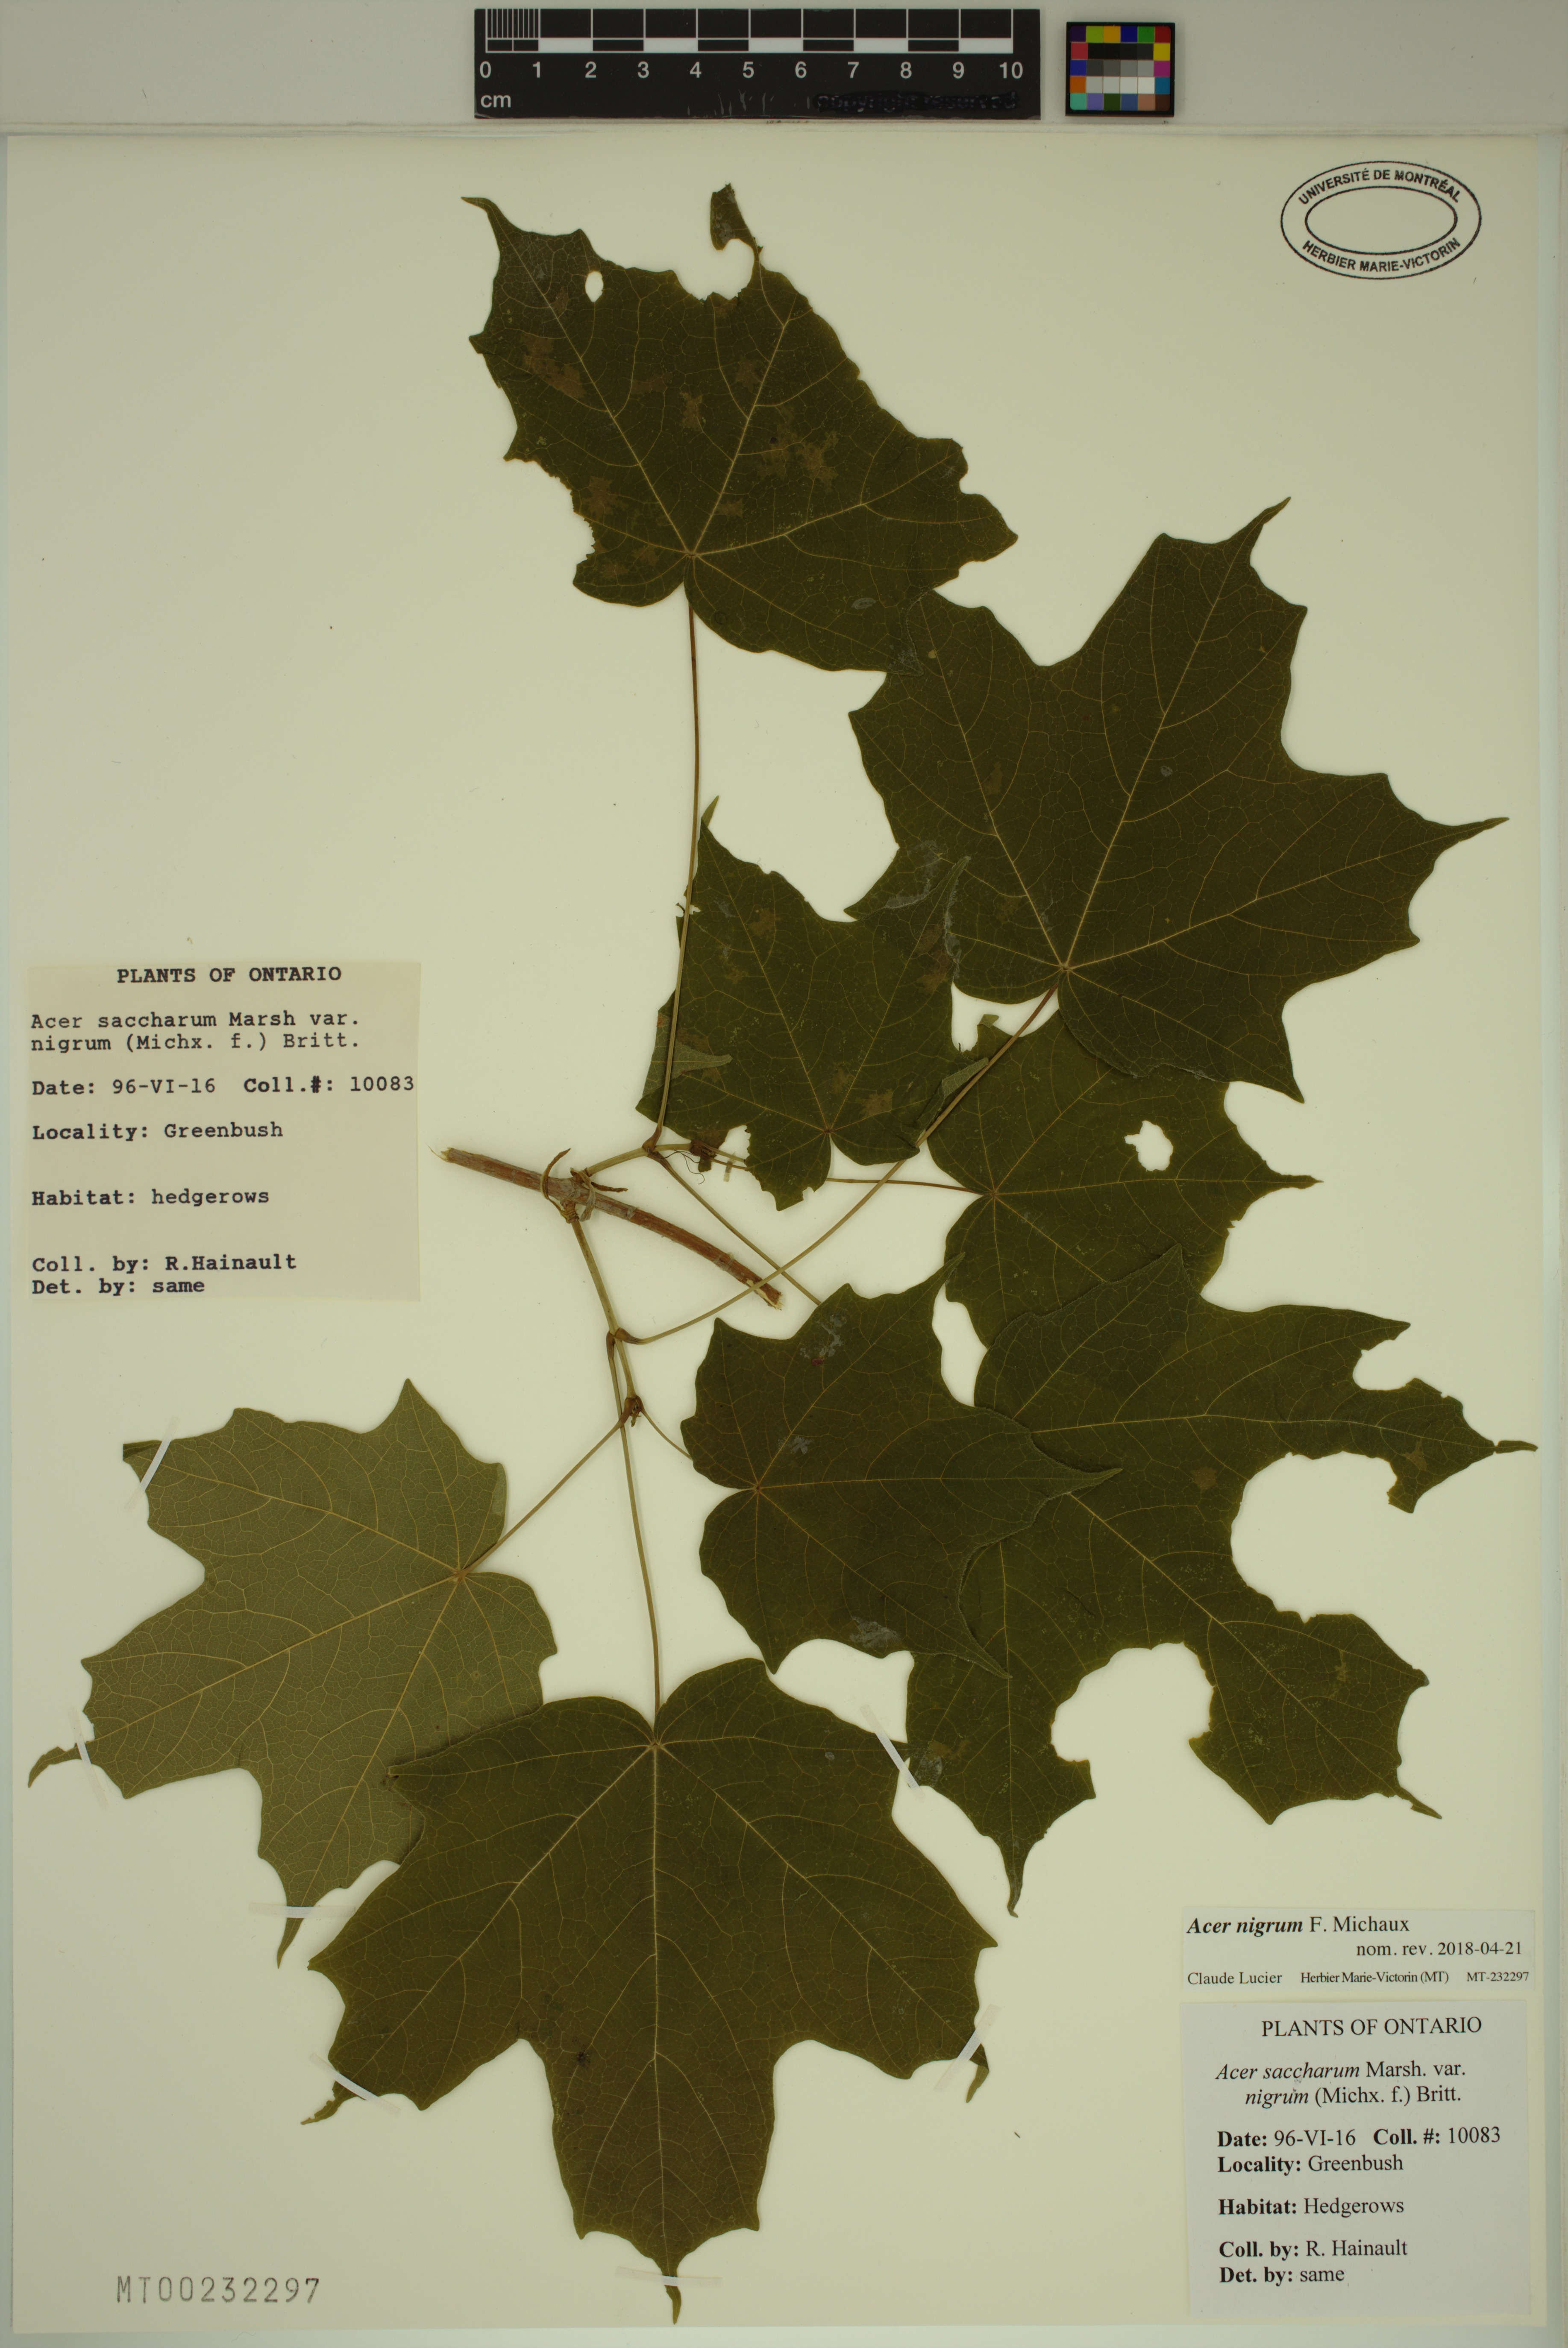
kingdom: Plantae
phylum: Tracheophyta
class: Magnoliopsida
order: Sapindales
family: Sapindaceae
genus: Acer
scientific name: Acer nigrum
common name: Black maple
